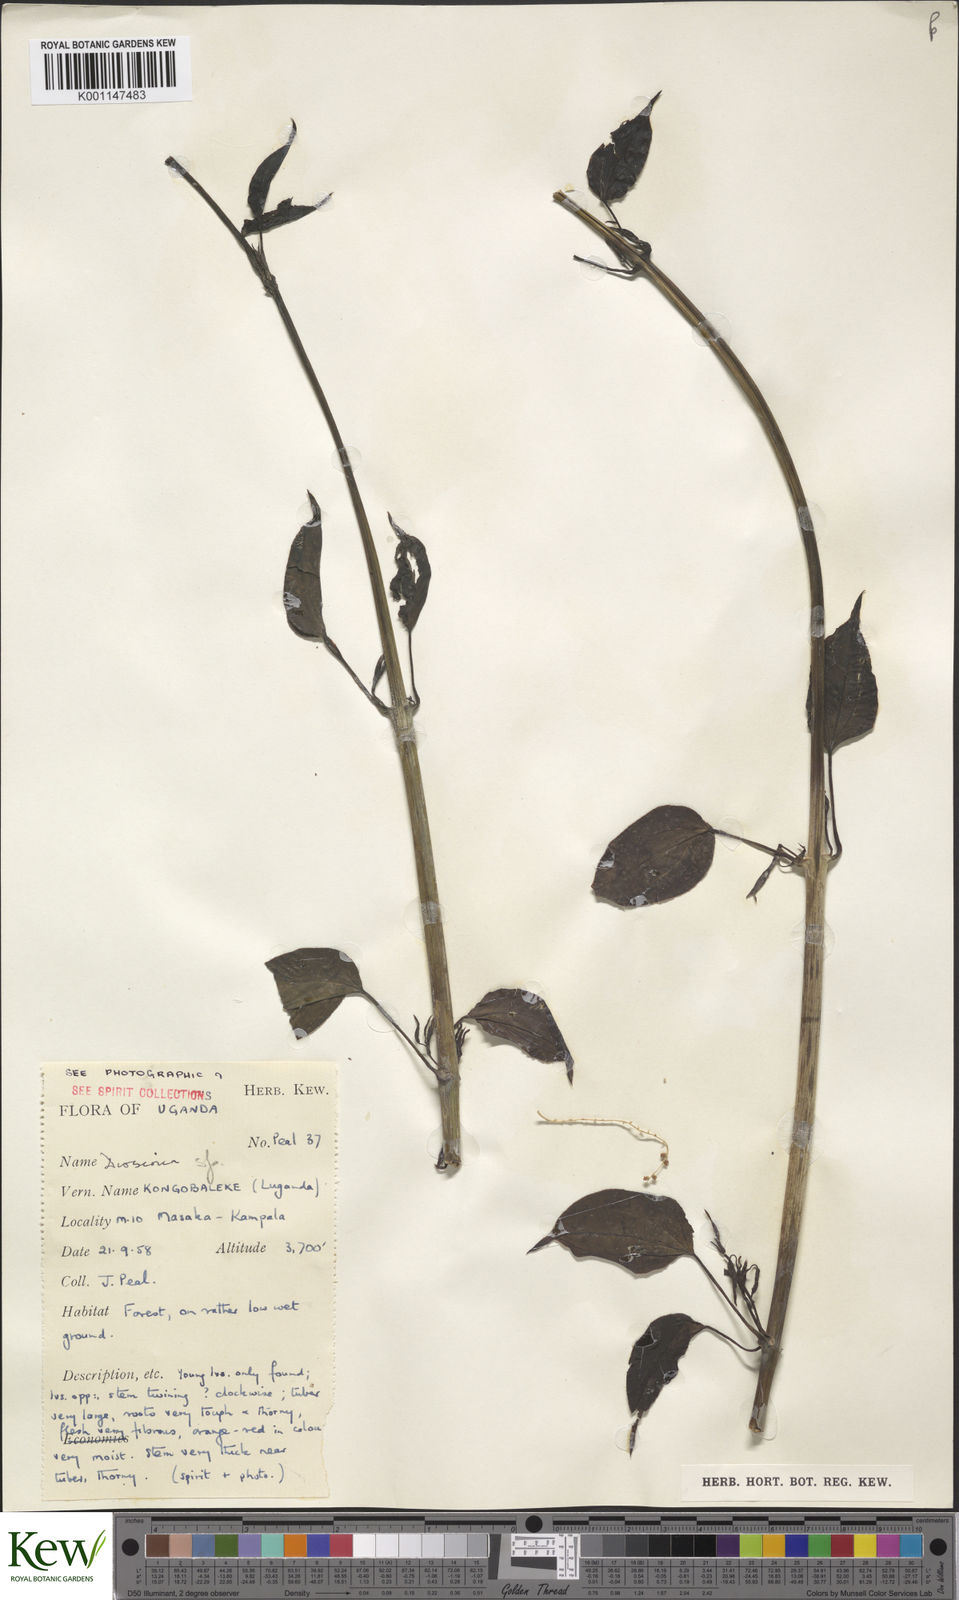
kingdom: Plantae
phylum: Tracheophyta
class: Liliopsida
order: Dioscoreales
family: Dioscoreaceae
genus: Dioscorea
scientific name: Dioscorea
